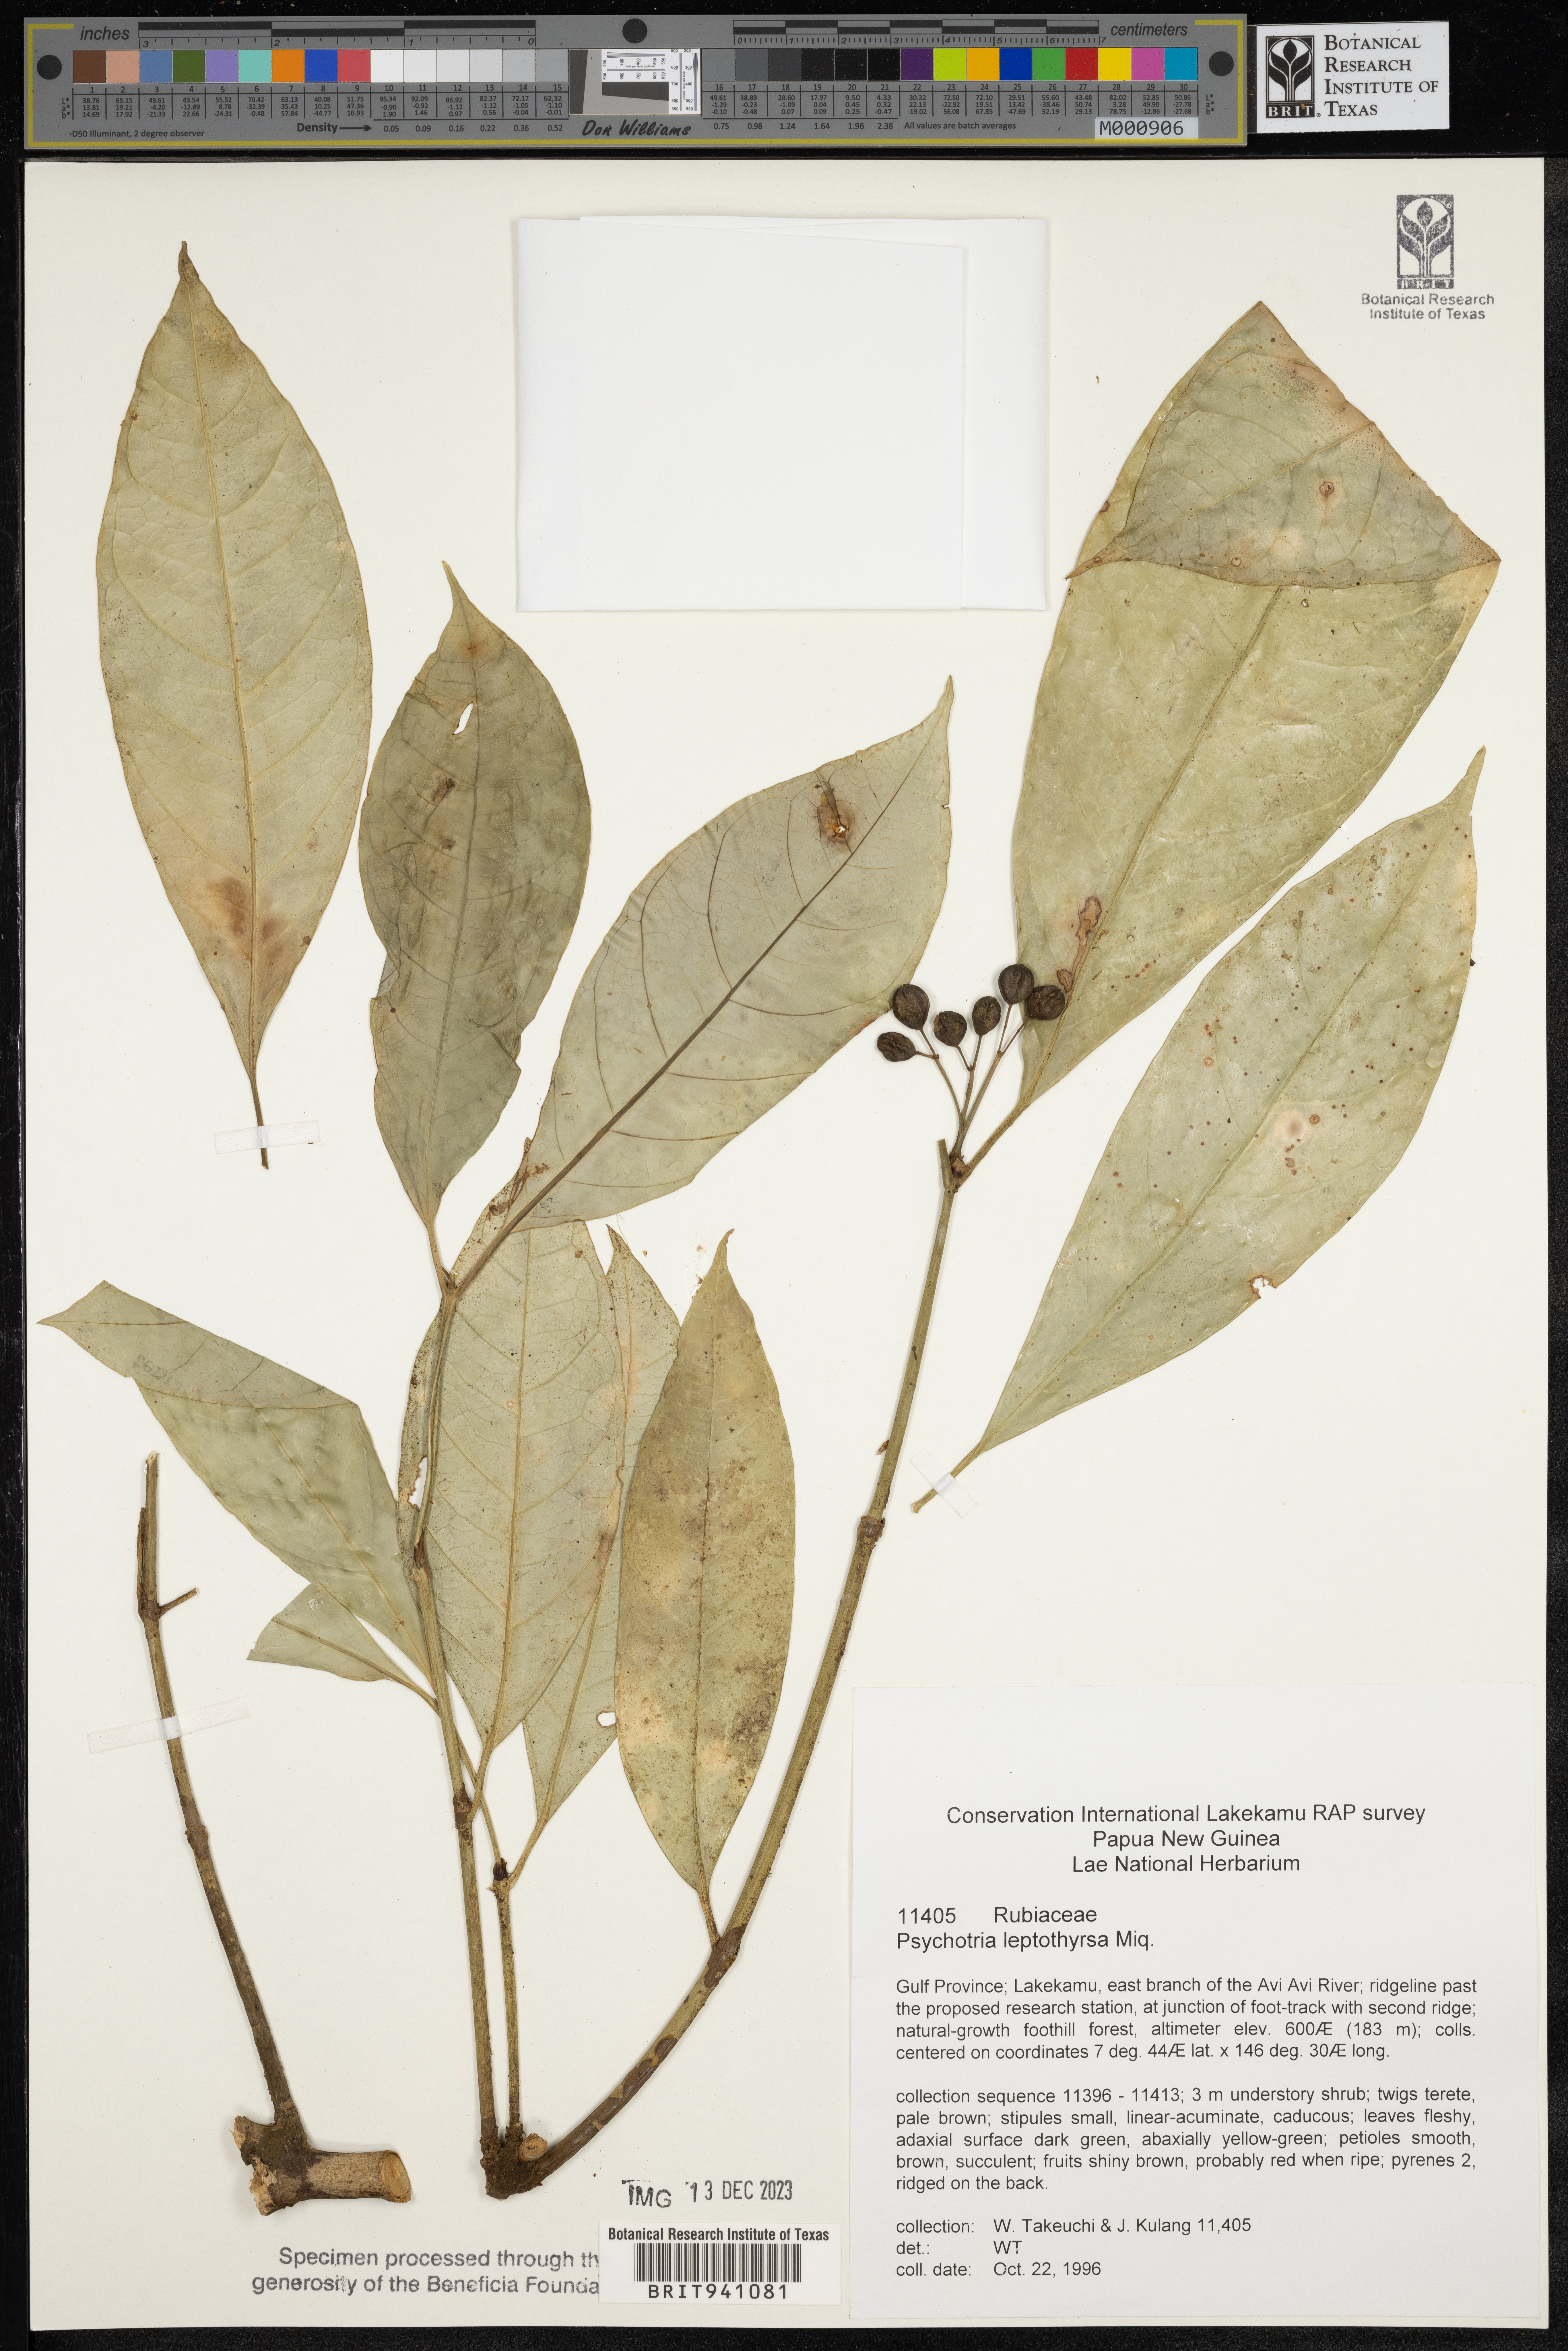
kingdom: Plantae
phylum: Tracheophyta
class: Magnoliopsida
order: Gentianales
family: Rubiaceae
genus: Psychotria
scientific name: Psychotria
